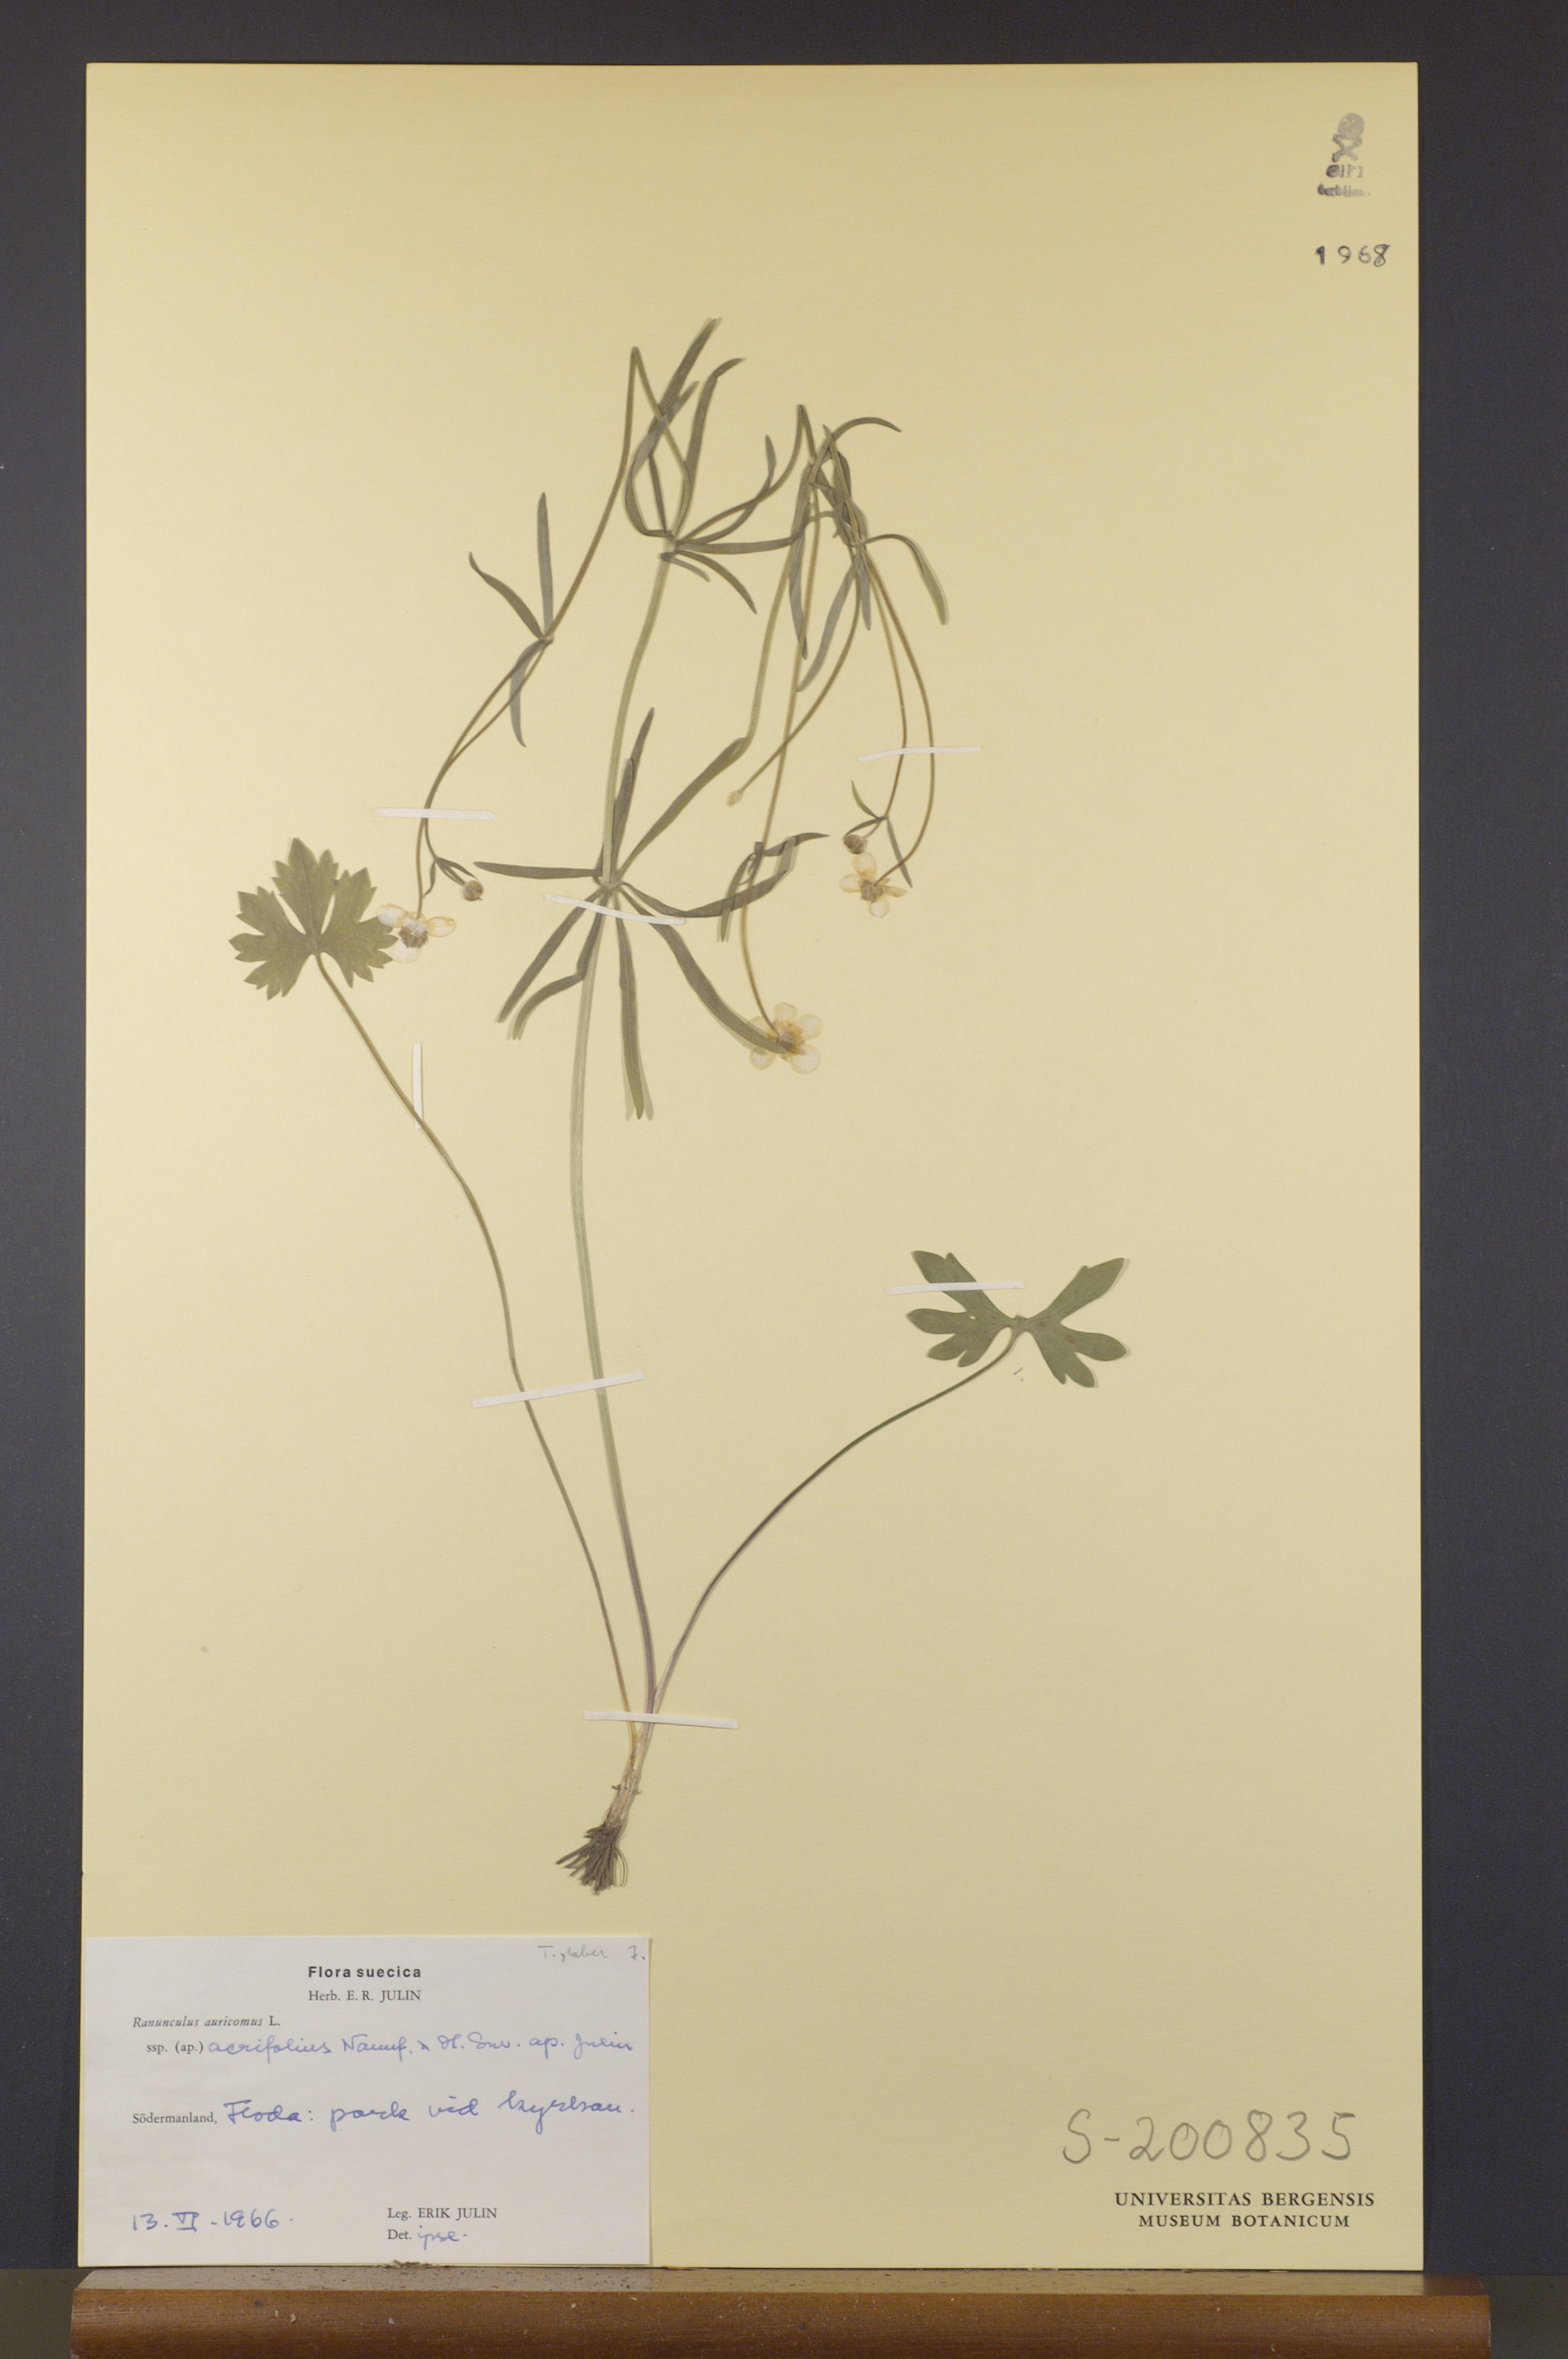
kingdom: Plantae
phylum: Tracheophyta
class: Magnoliopsida
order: Ranunculales
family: Ranunculaceae
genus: Ranunculus
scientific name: Ranunculus acrifolius
